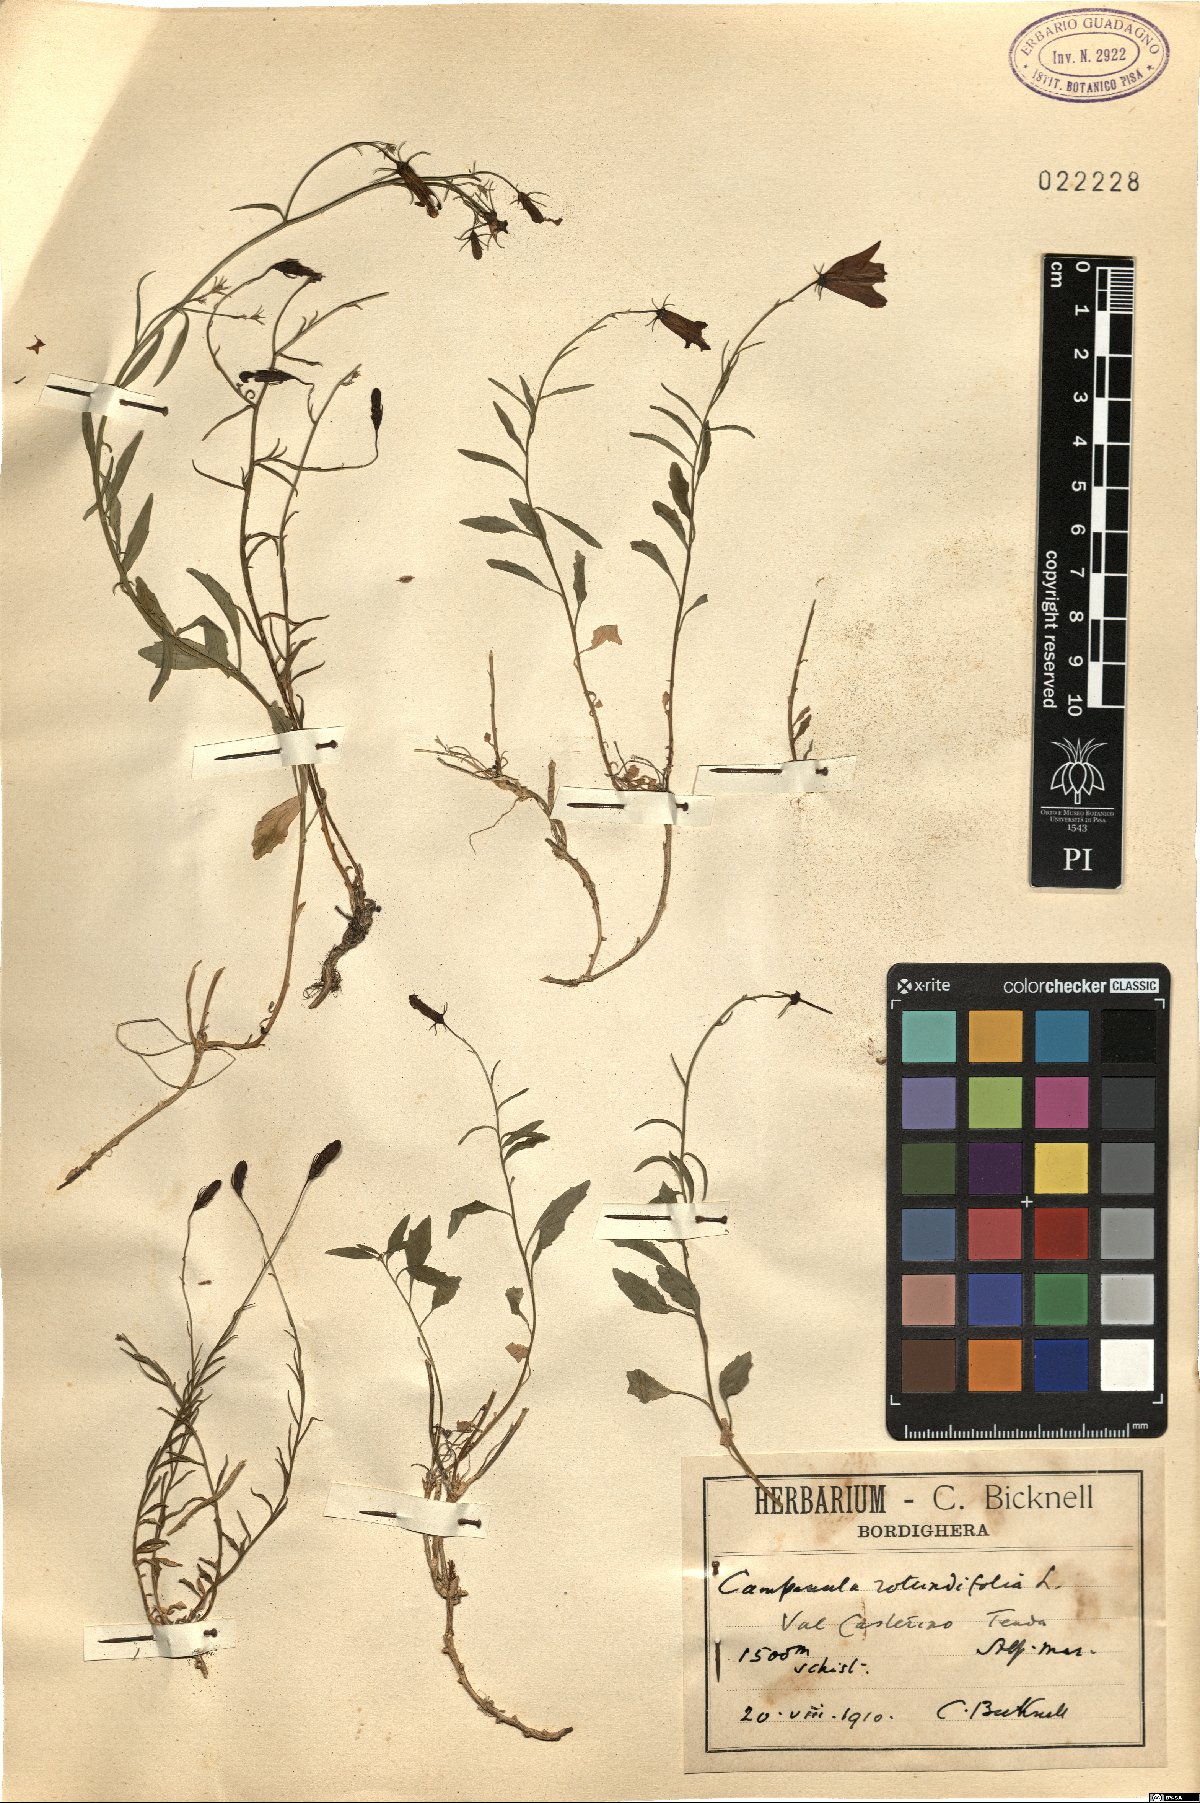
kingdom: Plantae
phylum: Tracheophyta
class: Magnoliopsida
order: Asterales
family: Campanulaceae
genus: Campanula
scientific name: Campanula rotundifolia
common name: Harebell
